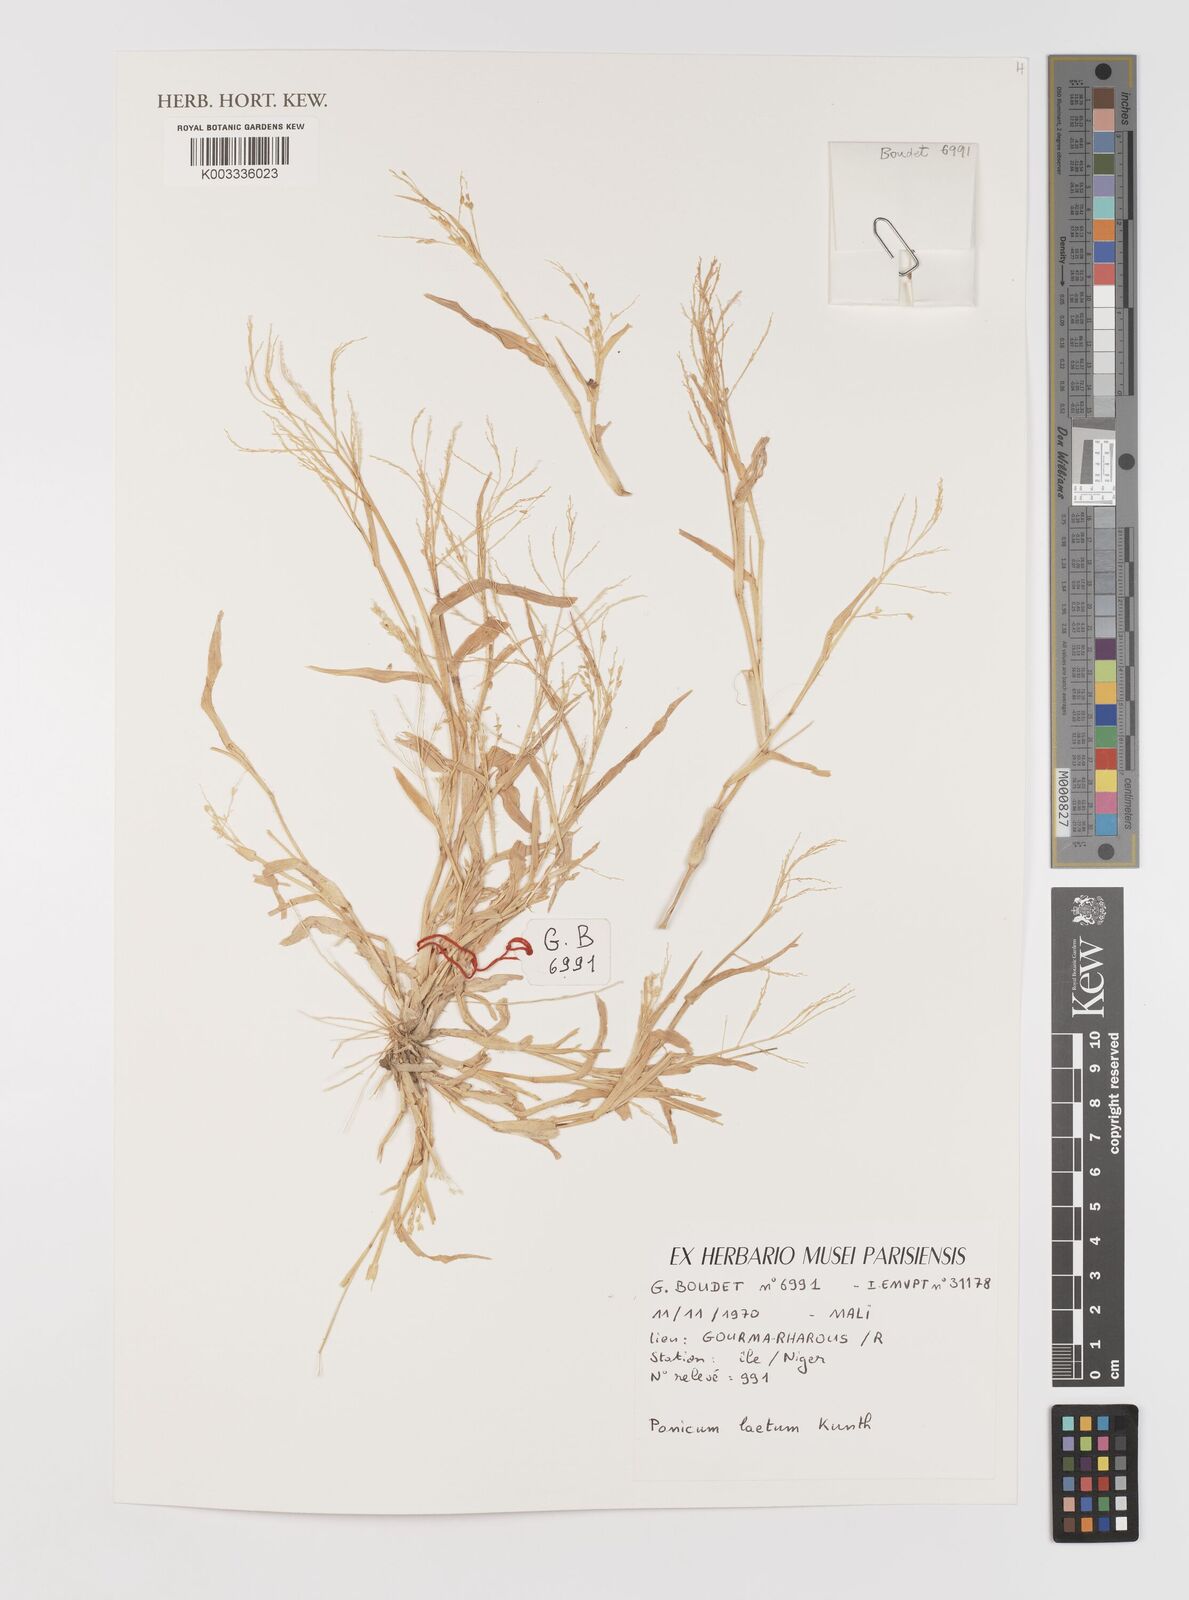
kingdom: Plantae
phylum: Tracheophyta
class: Liliopsida
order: Poales
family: Poaceae
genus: Panicum
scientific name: Panicum laetum
